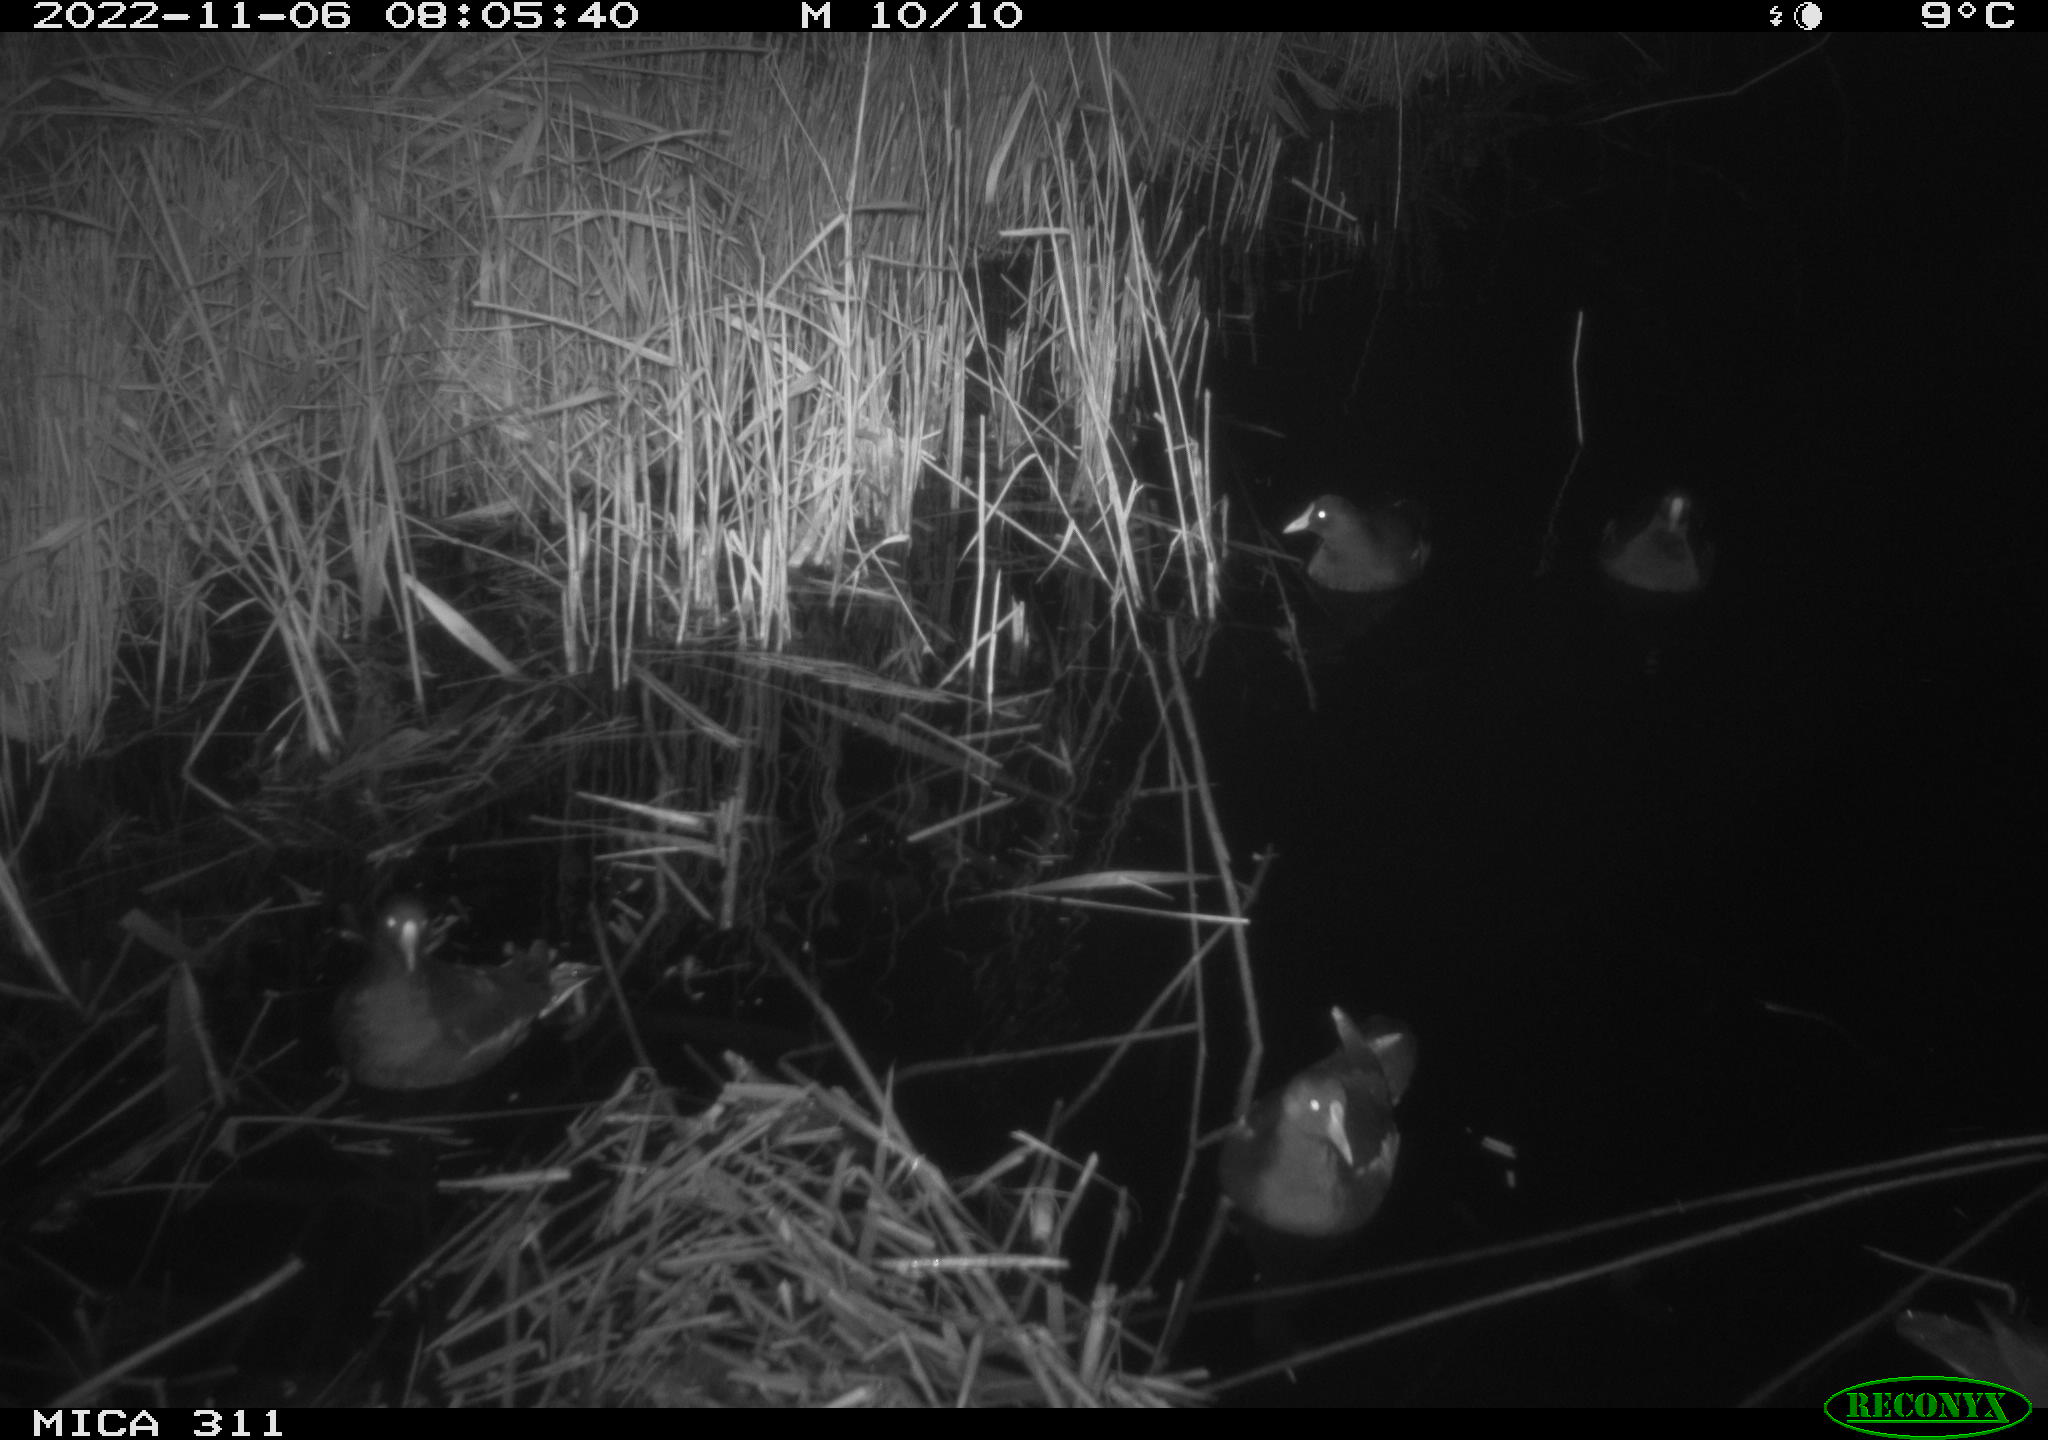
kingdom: Animalia
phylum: Chordata
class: Aves
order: Gruiformes
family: Rallidae
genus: Gallinula
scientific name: Gallinula chloropus
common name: Common moorhen
